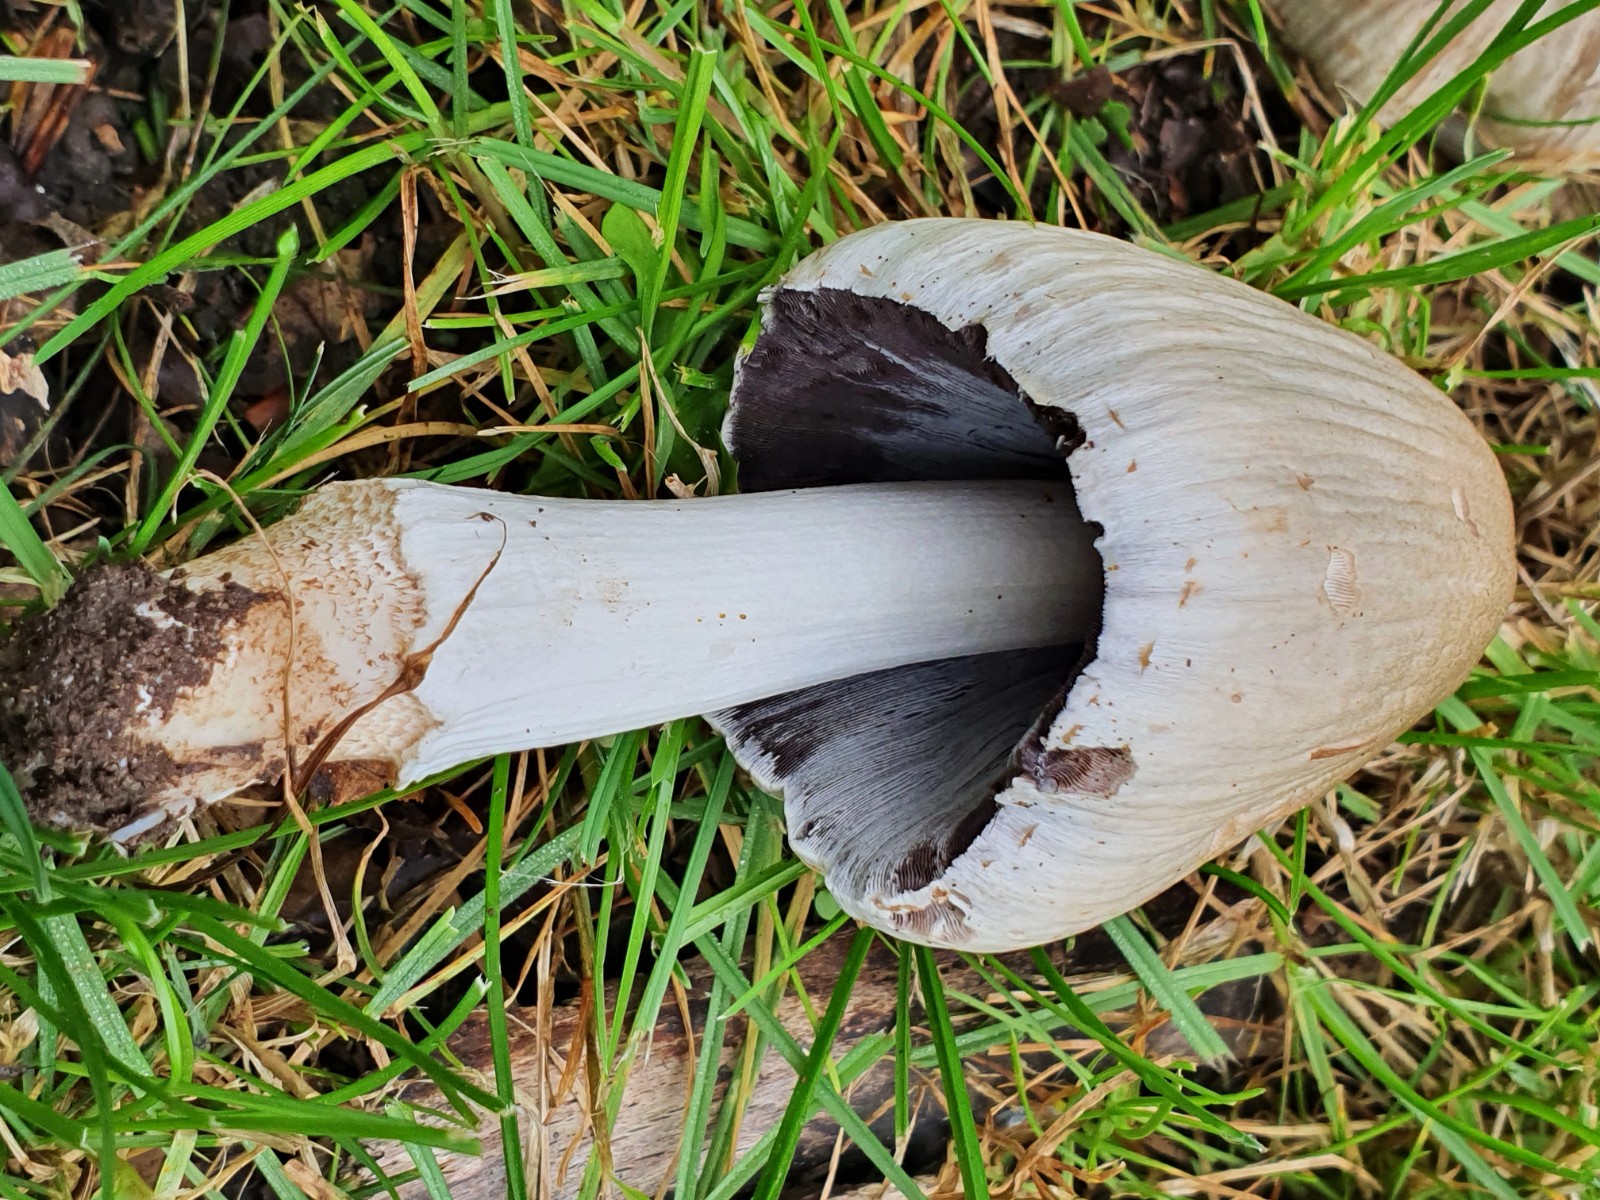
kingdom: Fungi
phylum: Basidiomycota
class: Agaricomycetes
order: Agaricales
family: Psathyrellaceae
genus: Coprinopsis
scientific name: Coprinopsis atramentaria
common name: almindelig blækhat
